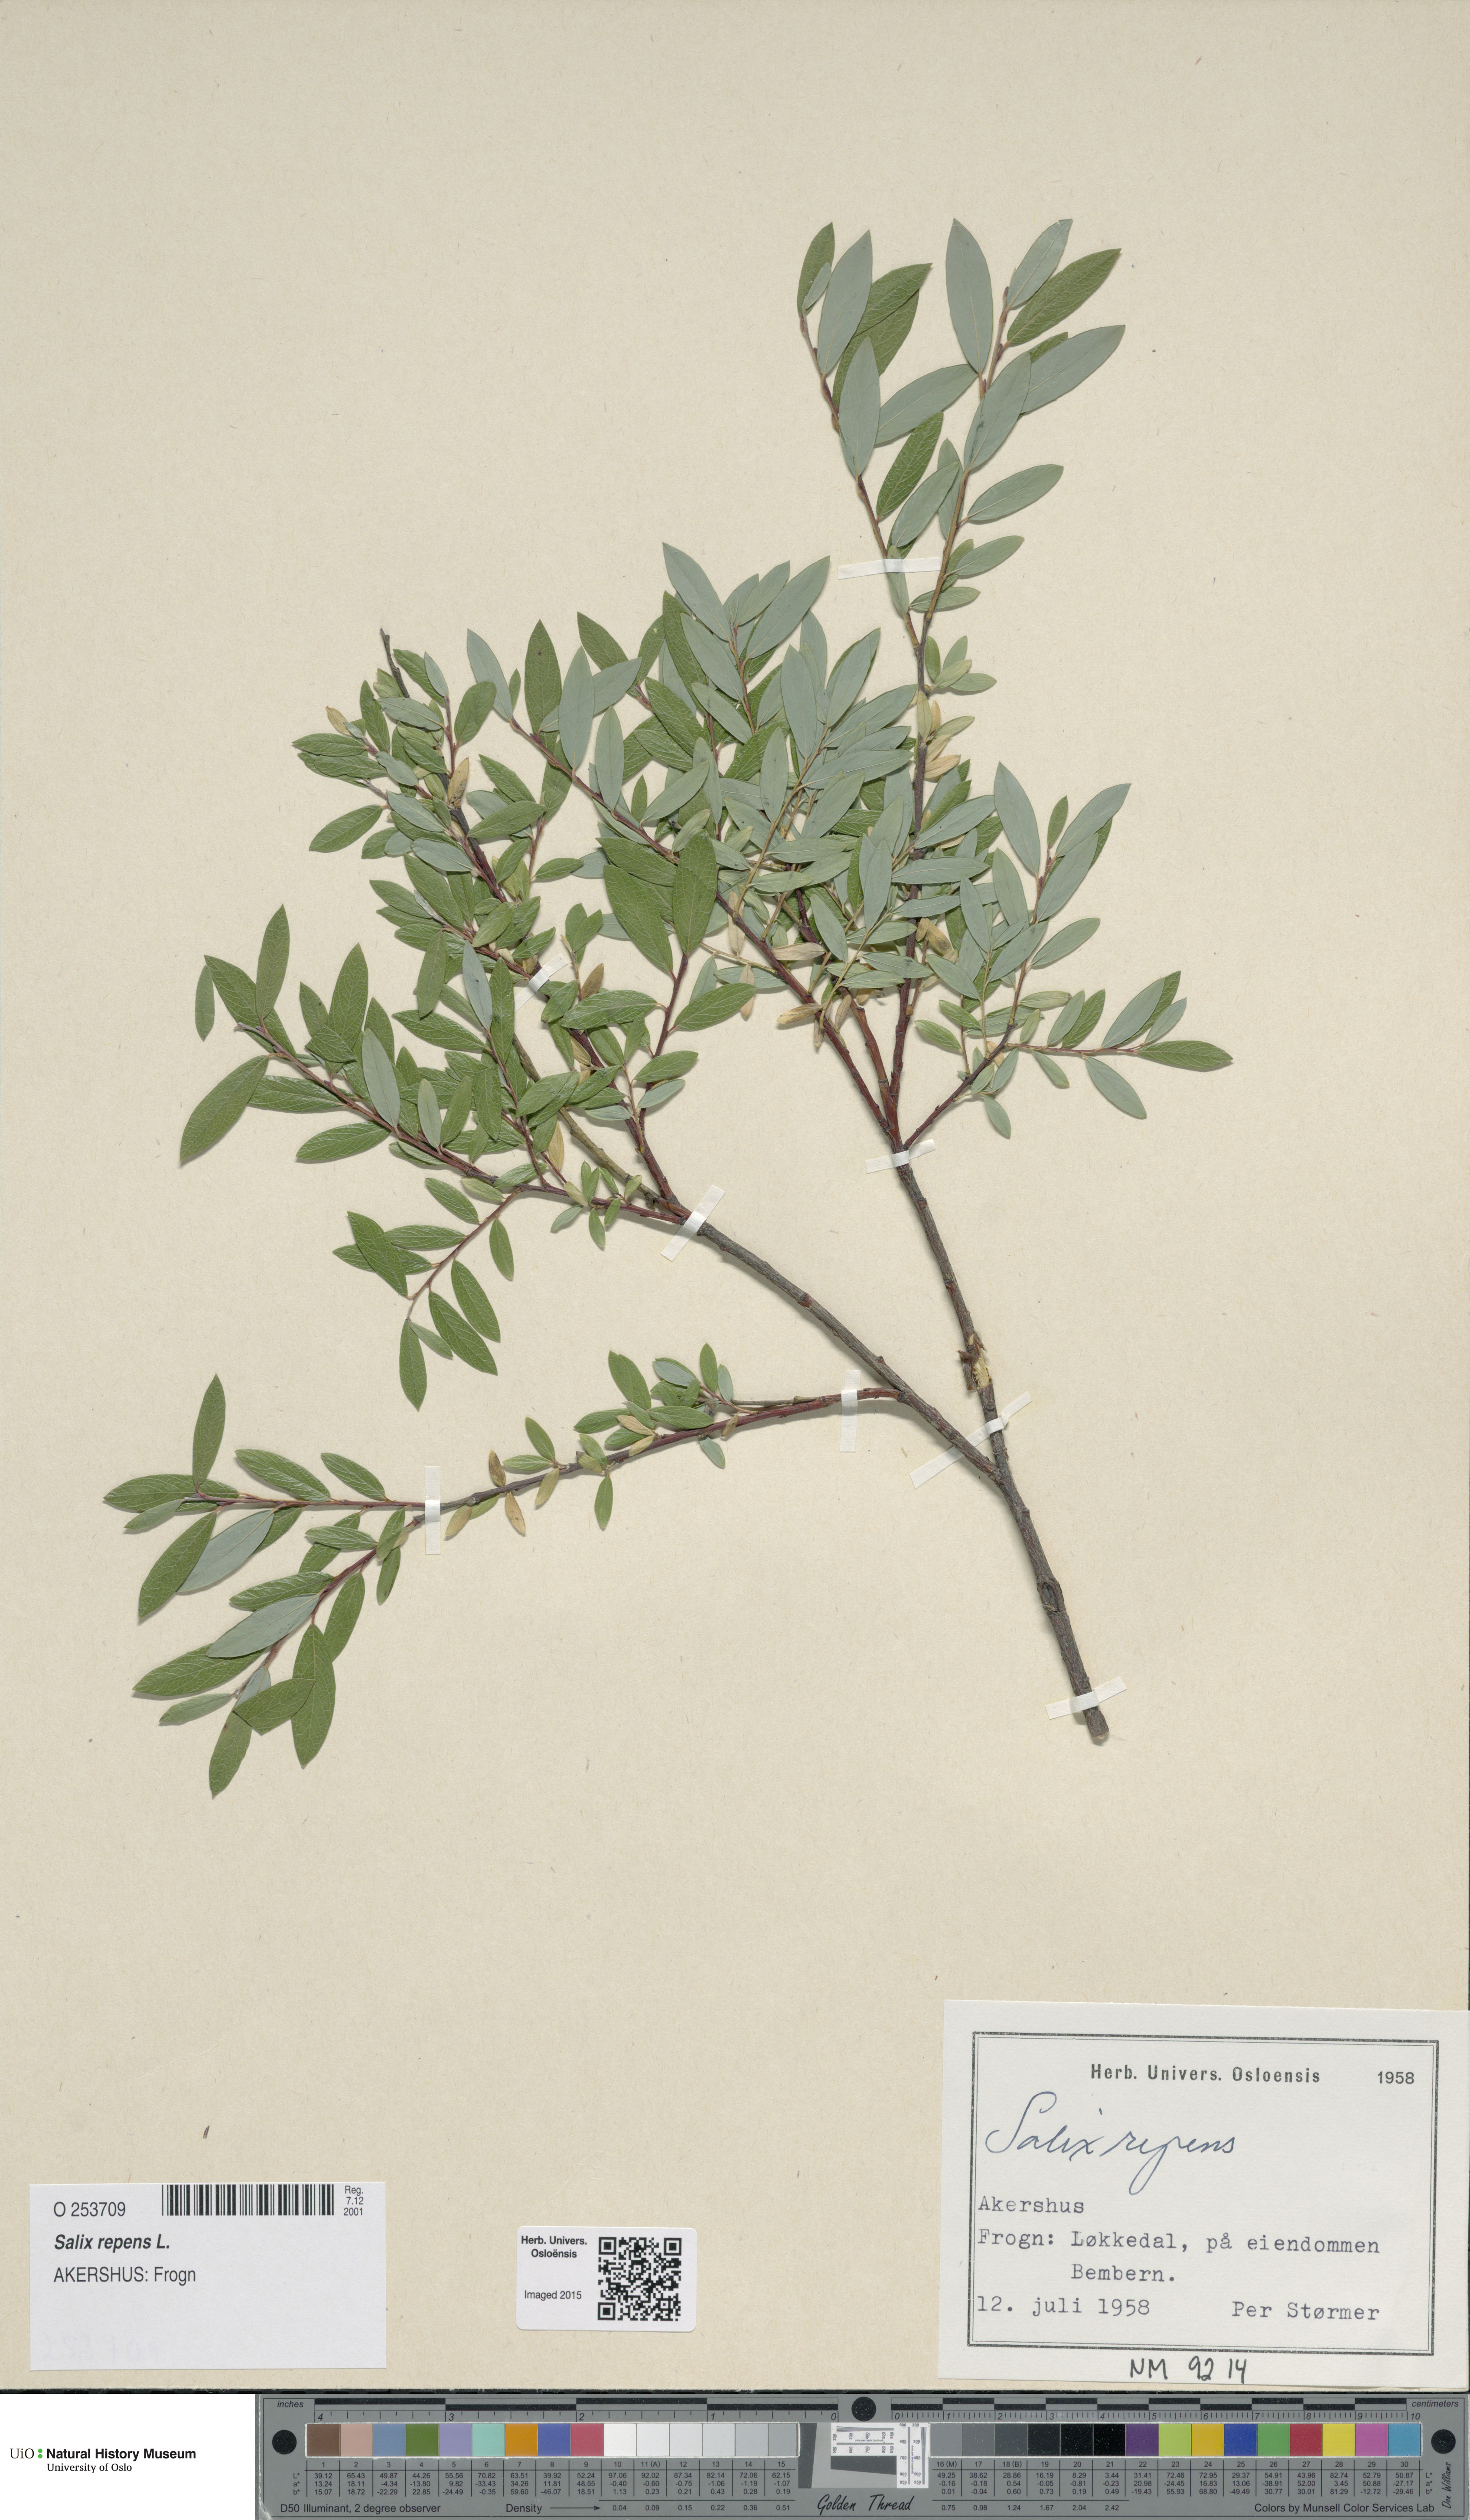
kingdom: Plantae
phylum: Tracheophyta
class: Magnoliopsida
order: Malpighiales
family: Salicaceae
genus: Salix
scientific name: Salix repens
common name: Creeping willow
